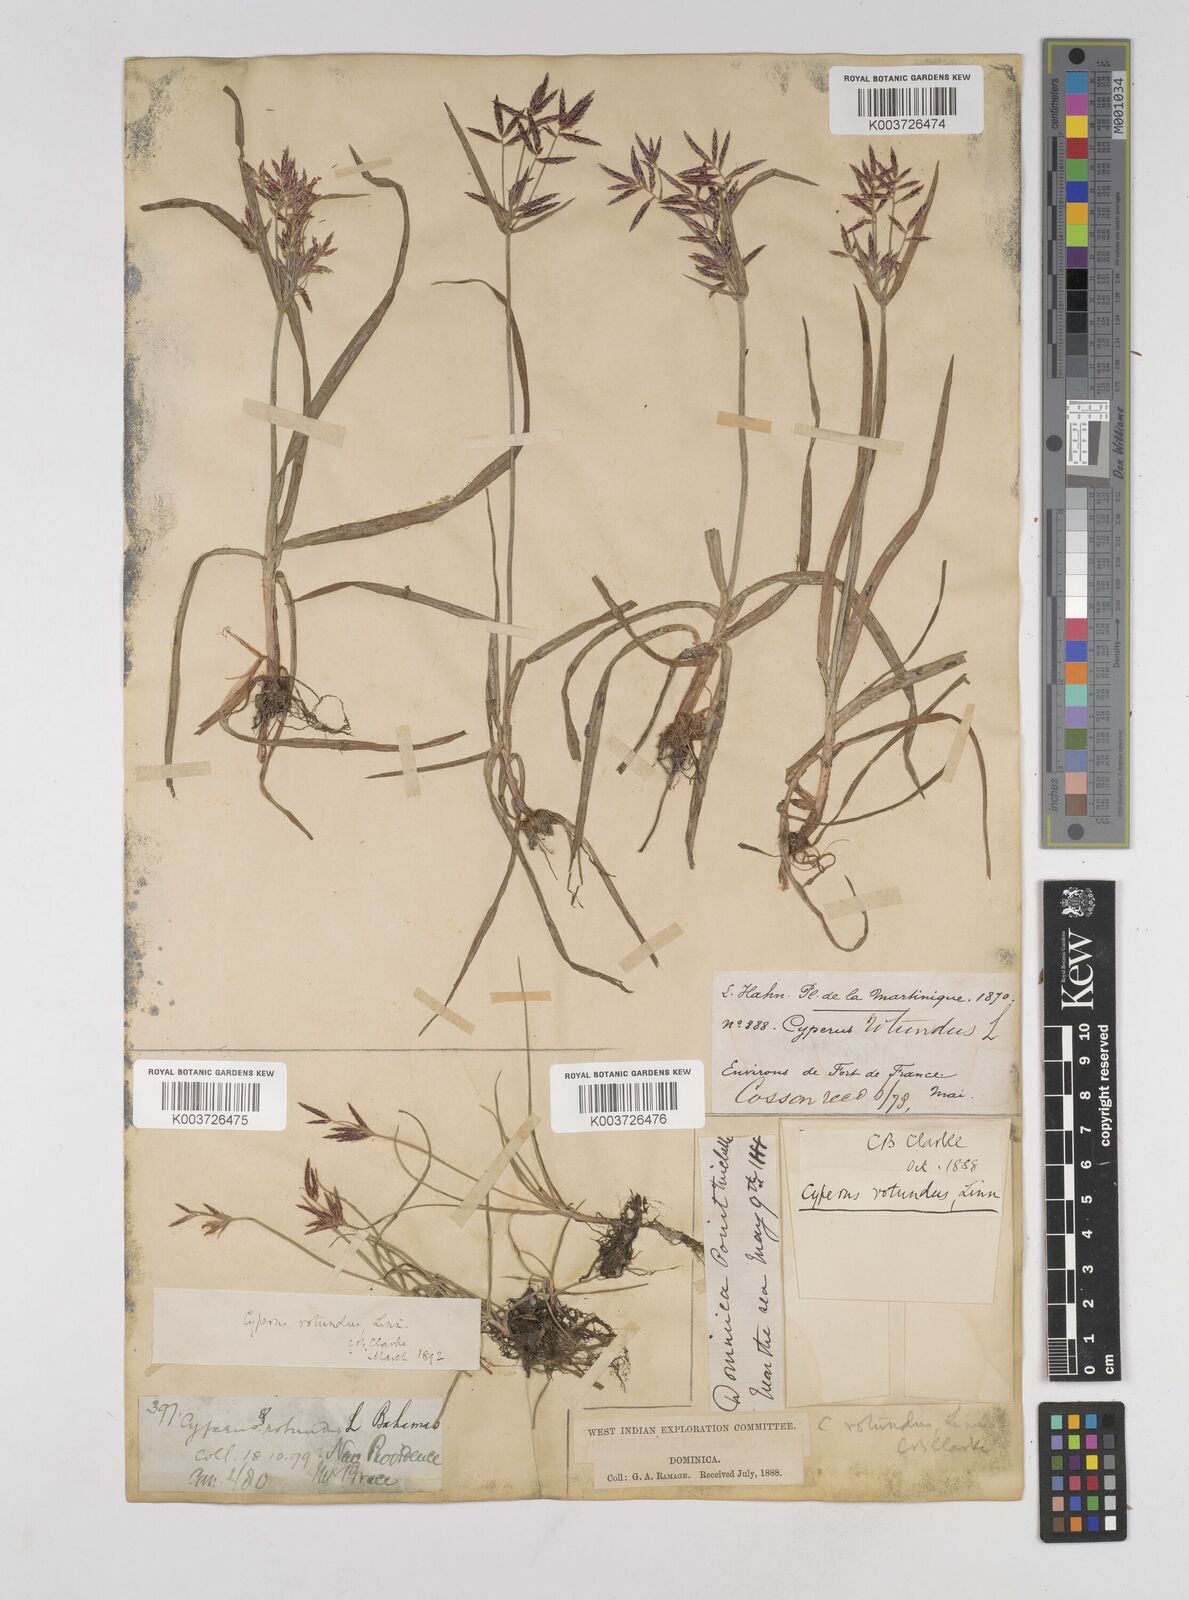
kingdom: Plantae
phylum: Tracheophyta
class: Liliopsida
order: Poales
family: Cyperaceae
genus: Cyperus
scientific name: Cyperus rotundus
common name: Nutgrass
